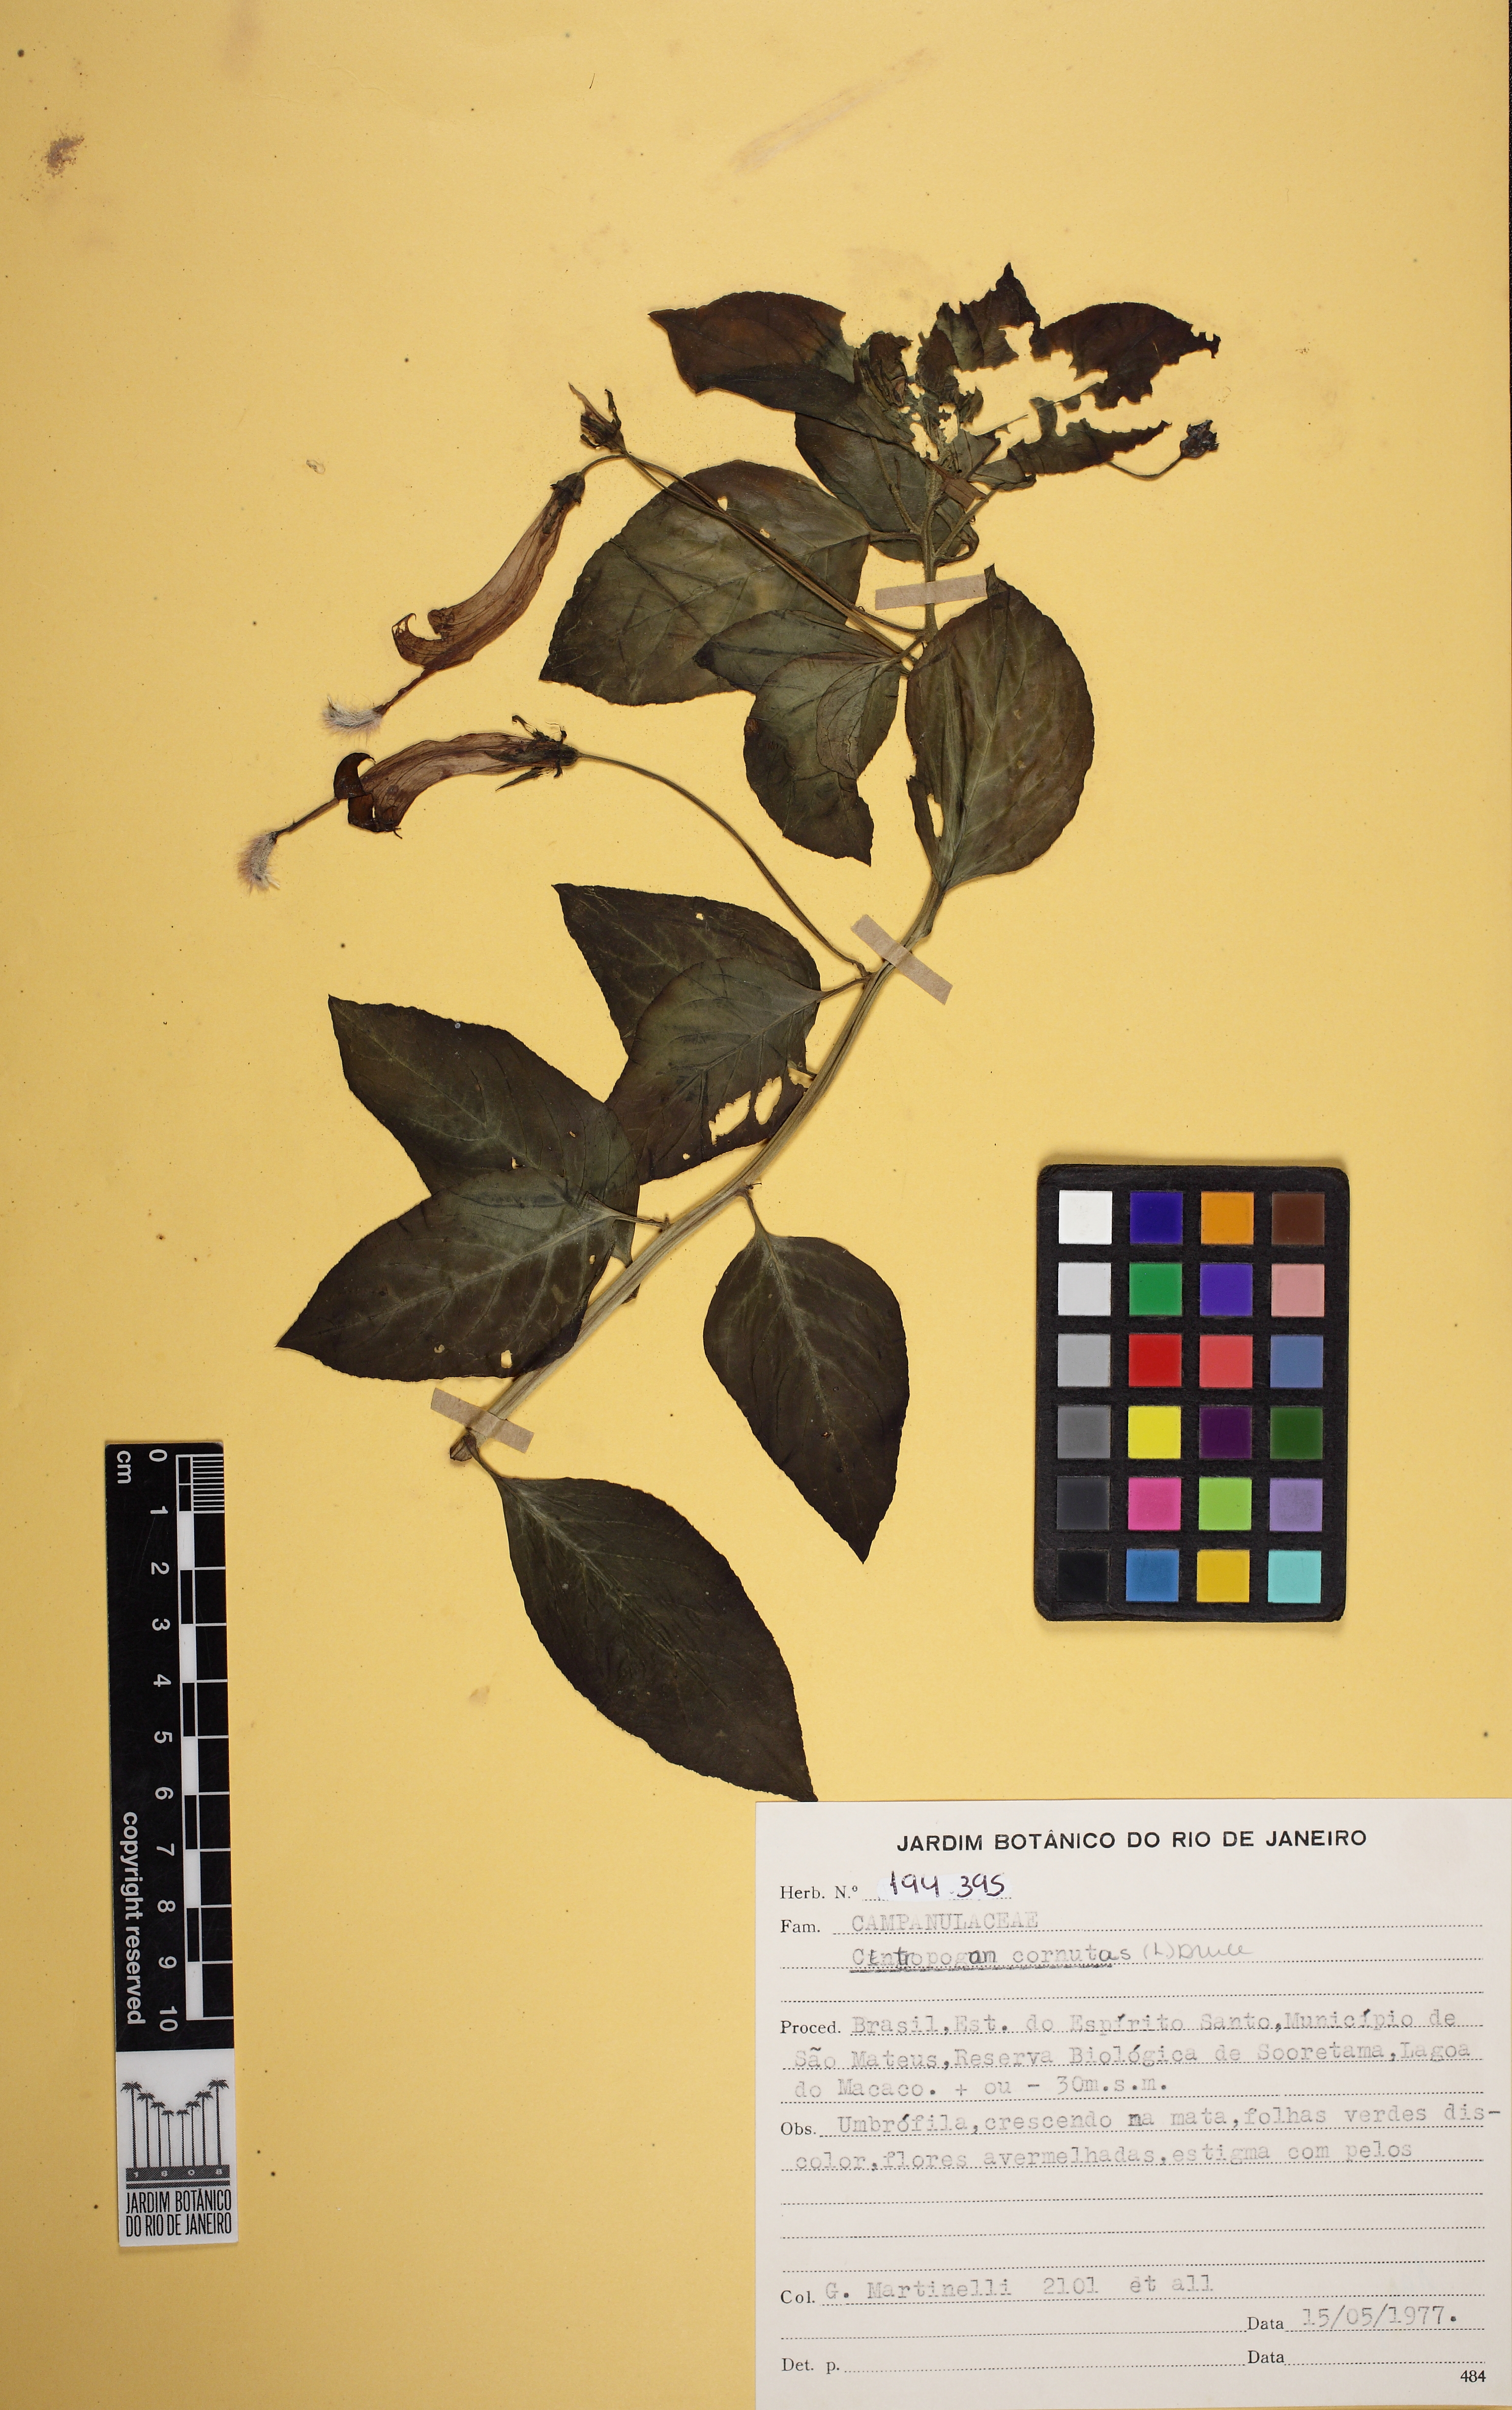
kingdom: Plantae
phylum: Tracheophyta
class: Magnoliopsida
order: Asterales
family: Campanulaceae
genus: Centropogon
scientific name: Centropogon cornutus
